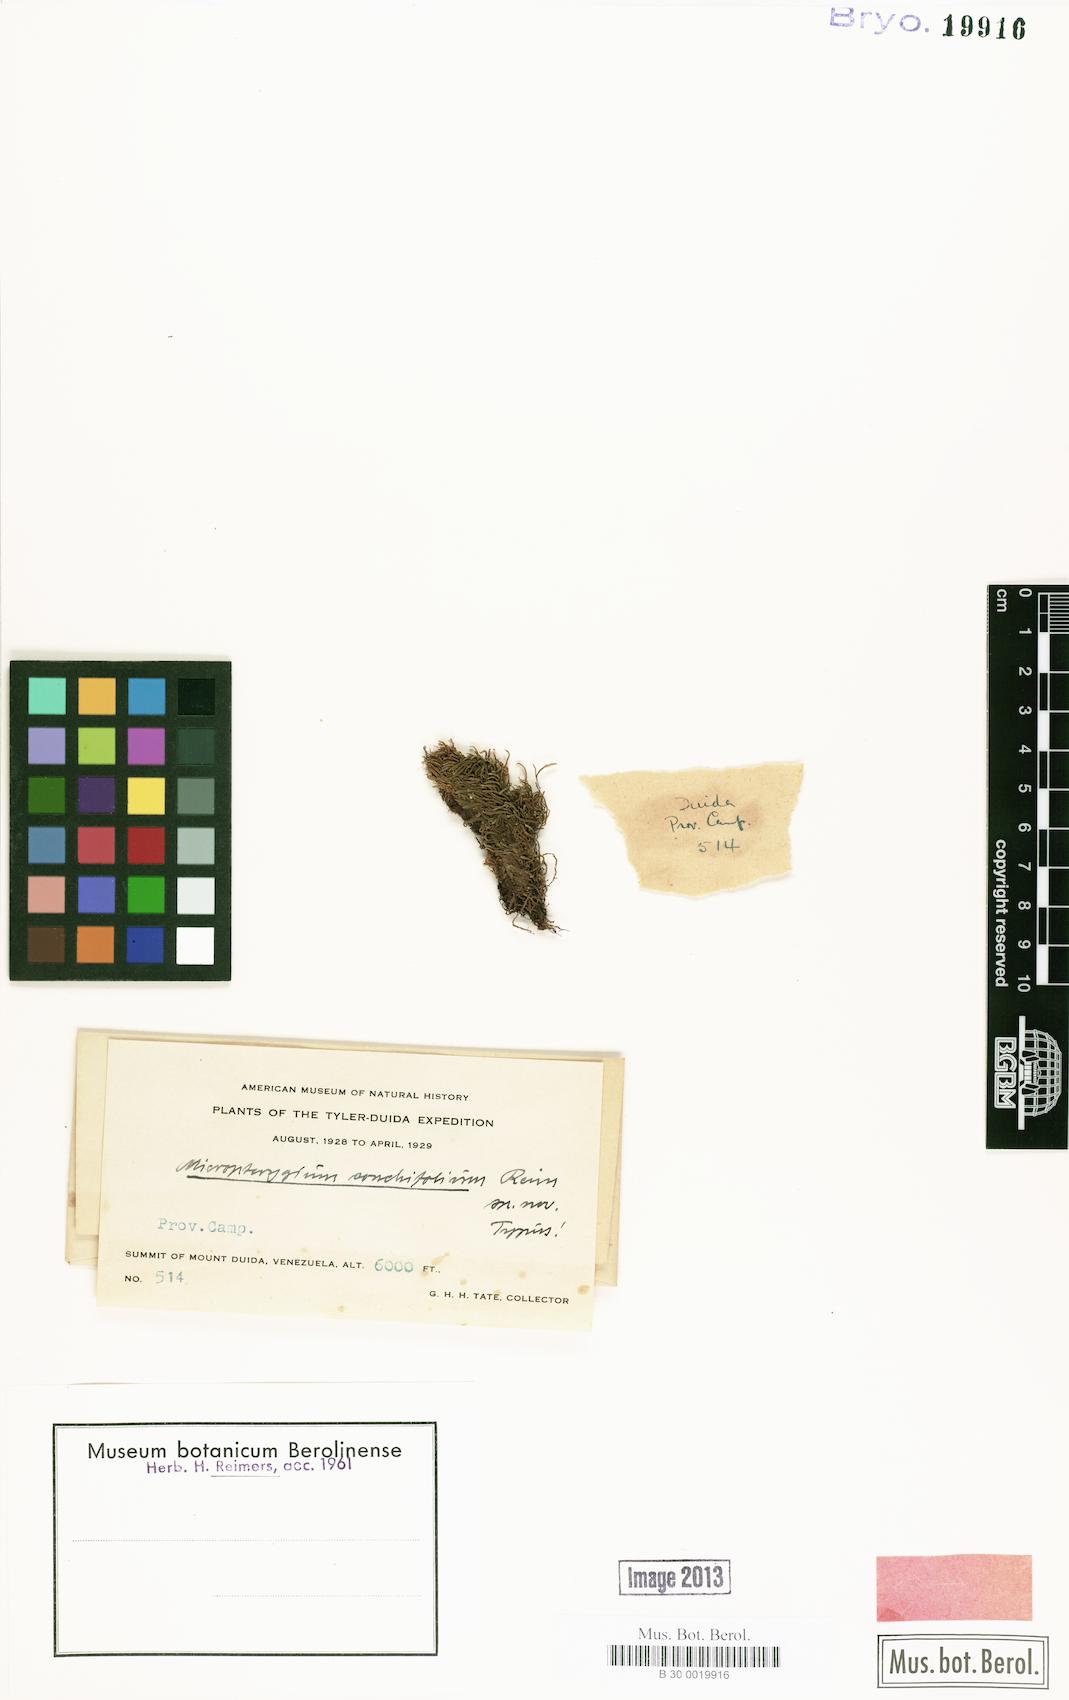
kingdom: Plantae
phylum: Marchantiophyta
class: Jungermanniopsida
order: Jungermanniales
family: Lepidoziaceae
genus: Micropterygium
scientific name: Micropterygium conchifolium
